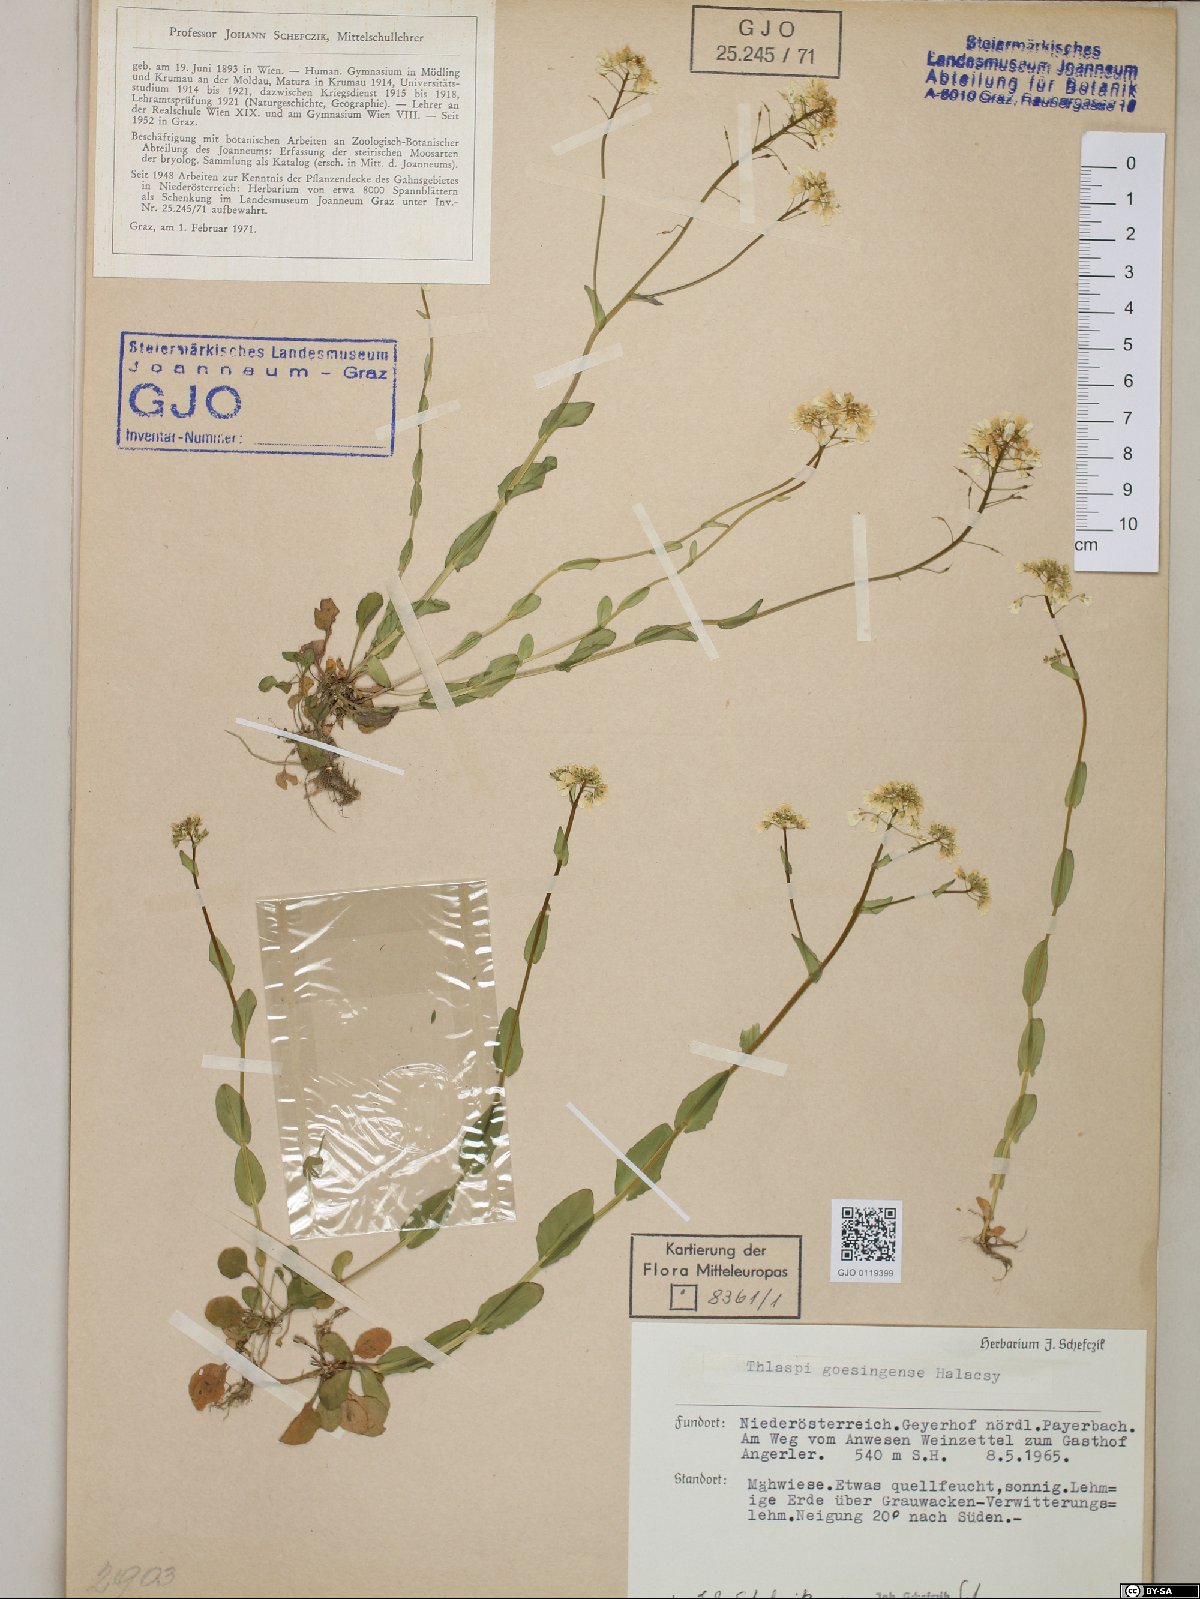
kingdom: Plantae
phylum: Tracheophyta
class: Magnoliopsida
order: Brassicales
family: Brassicaceae
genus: Noccaea
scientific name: Noccaea goesingensis
